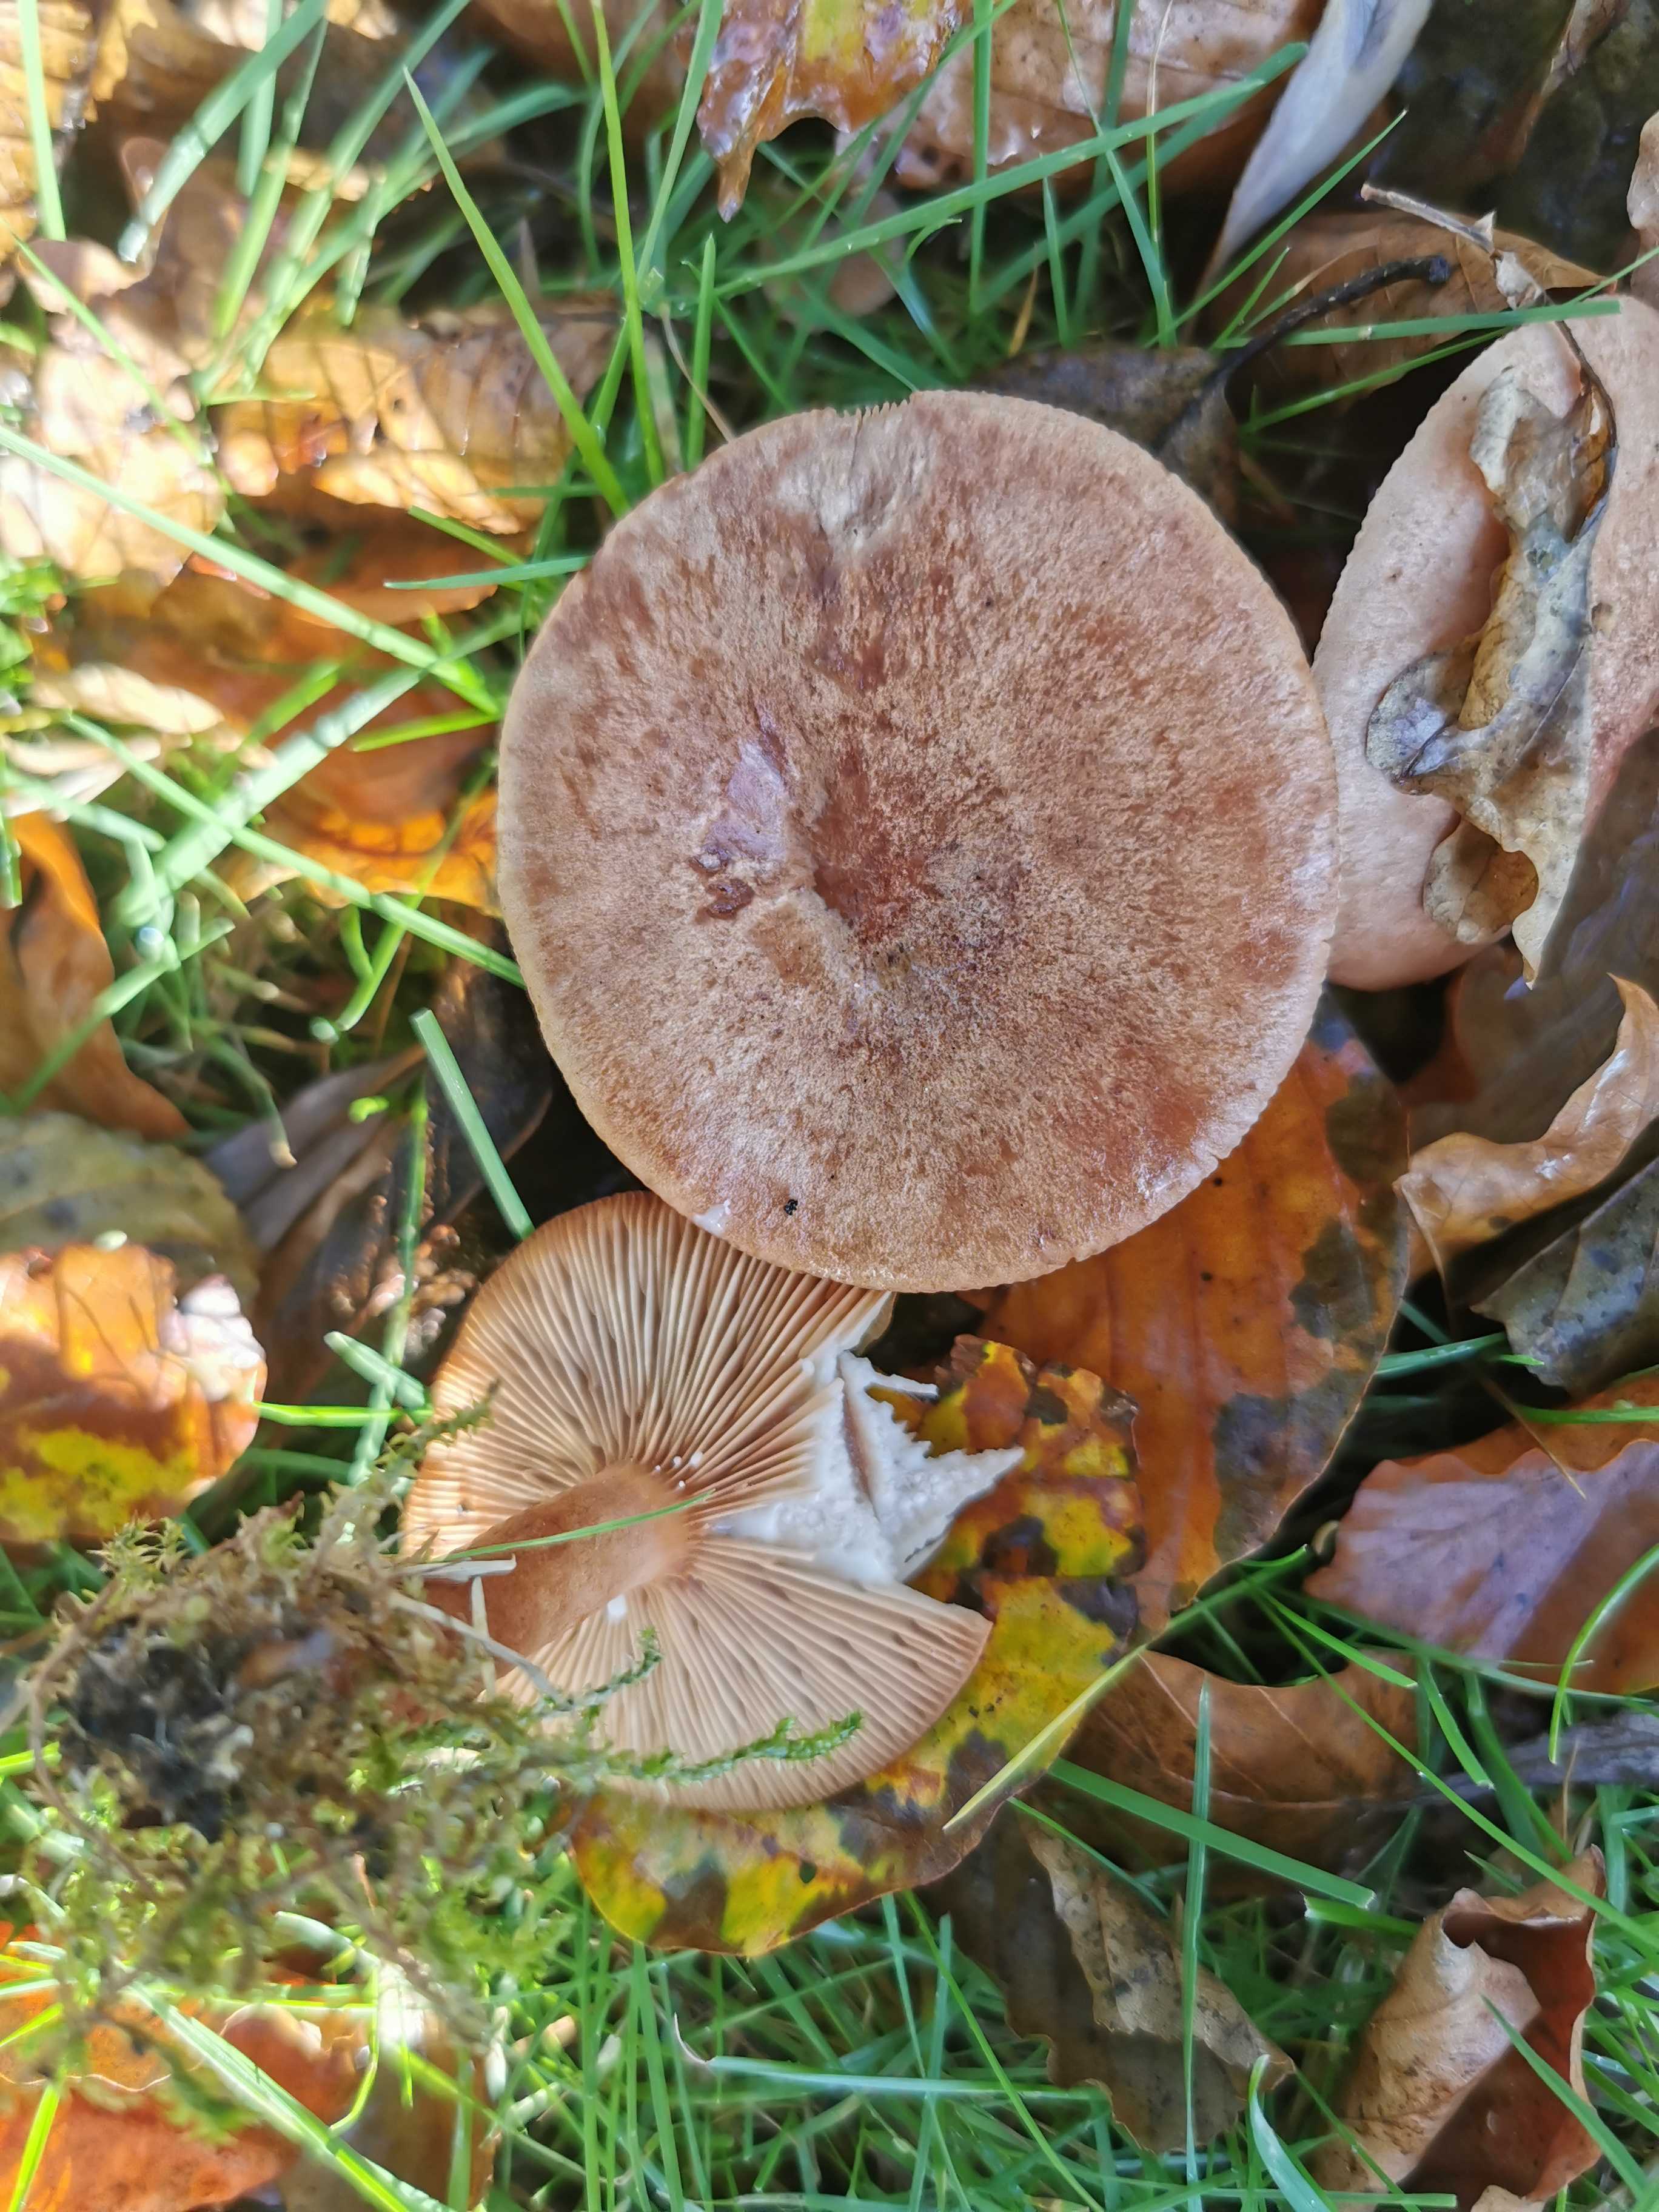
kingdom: Fungi
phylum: Basidiomycota
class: Agaricomycetes
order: Russulales
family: Russulaceae
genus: Lactarius
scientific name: Lactarius quietus
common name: ege-mælkehat
